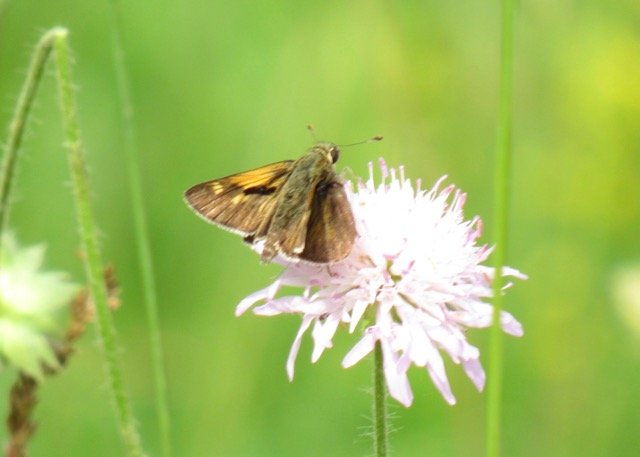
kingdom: Animalia
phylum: Arthropoda
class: Insecta
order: Lepidoptera
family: Hesperiidae
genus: Polites
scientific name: Polites themistocles
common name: Tawny-edged Skipper
